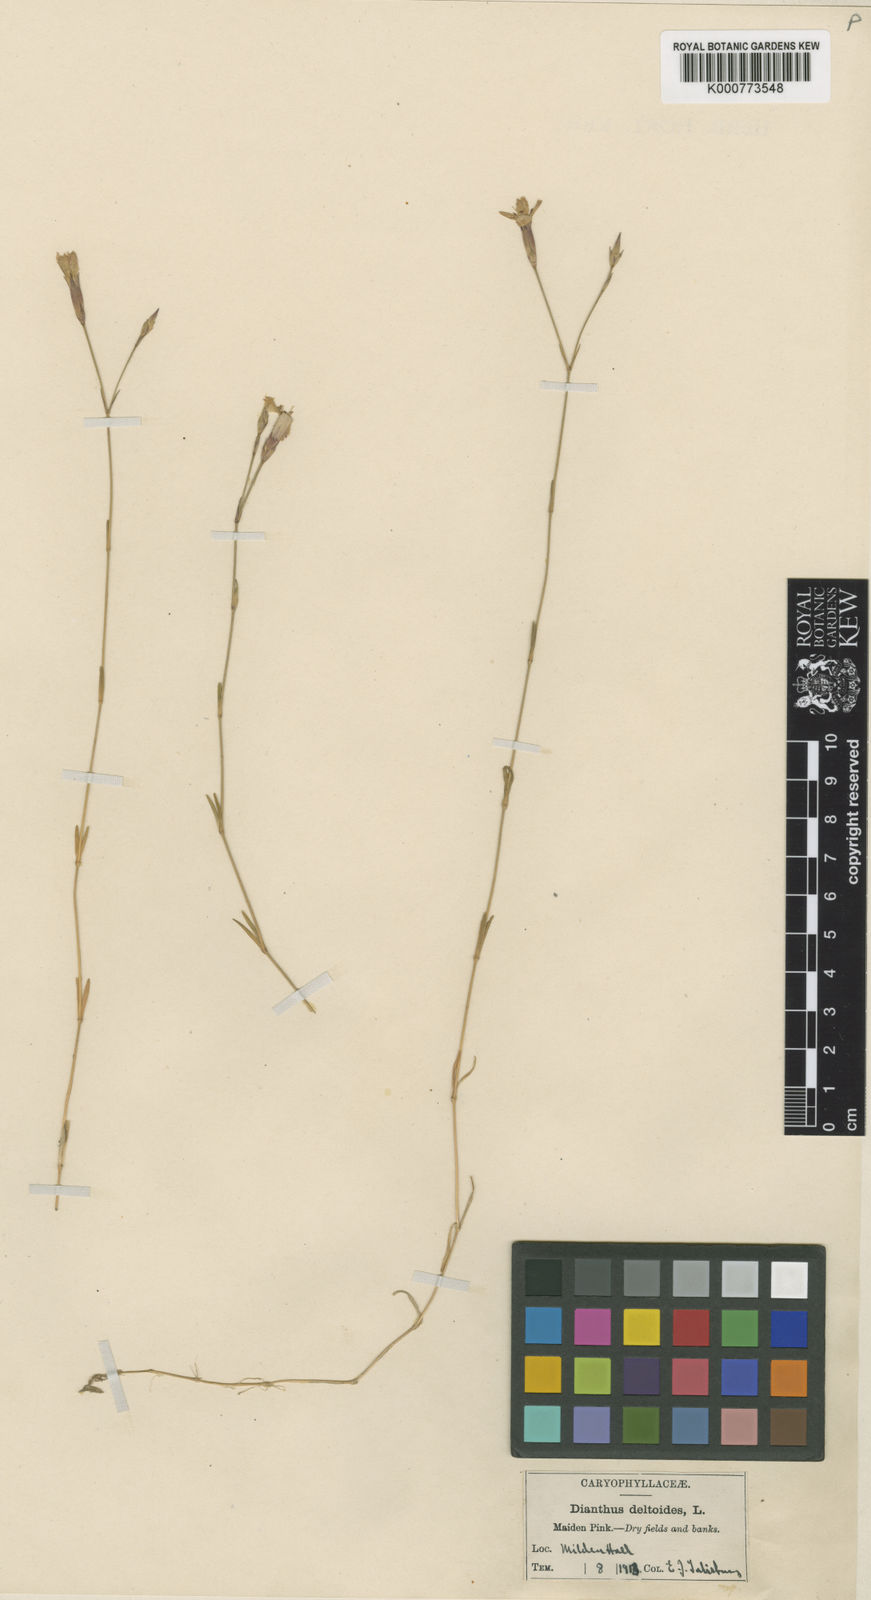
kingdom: Plantae
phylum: Tracheophyta
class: Magnoliopsida
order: Caryophyllales
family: Caryophyllaceae
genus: Dianthus
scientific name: Dianthus deltoides
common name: Maiden pink
